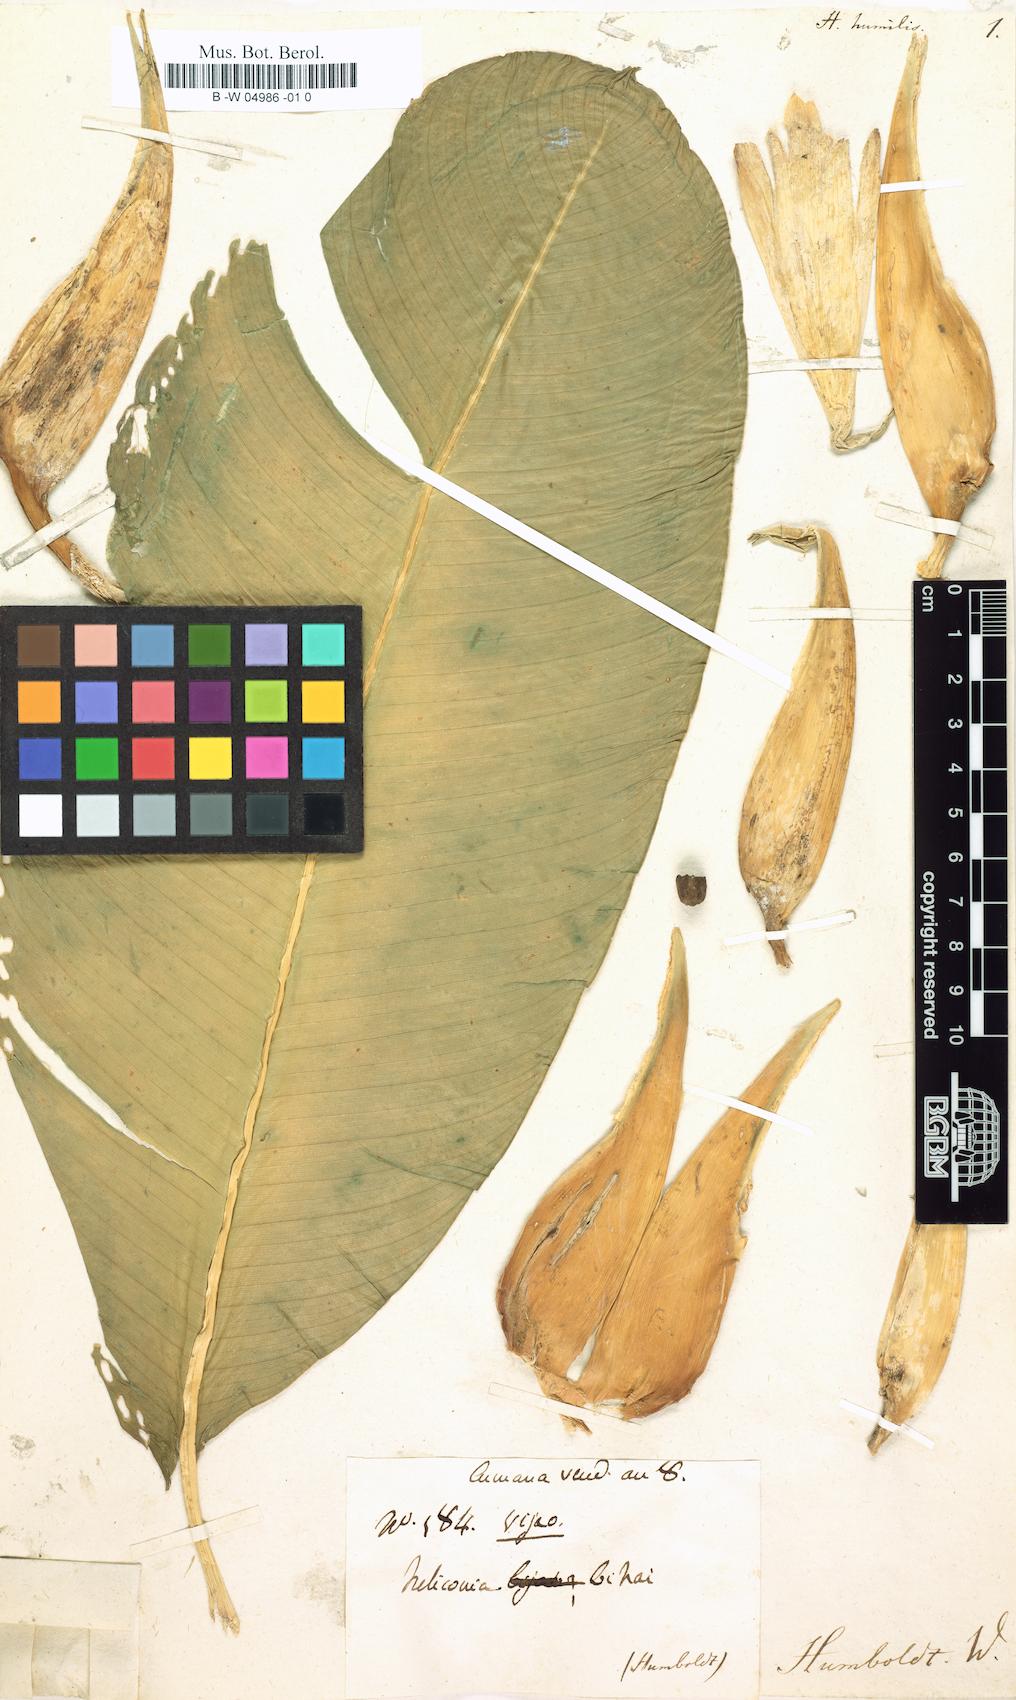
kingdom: Plantae
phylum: Tracheophyta
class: Liliopsida
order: Zingiberales
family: Heliconiaceae
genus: Heliconia
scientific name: Heliconia psittacorum
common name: Parrot's-flower
